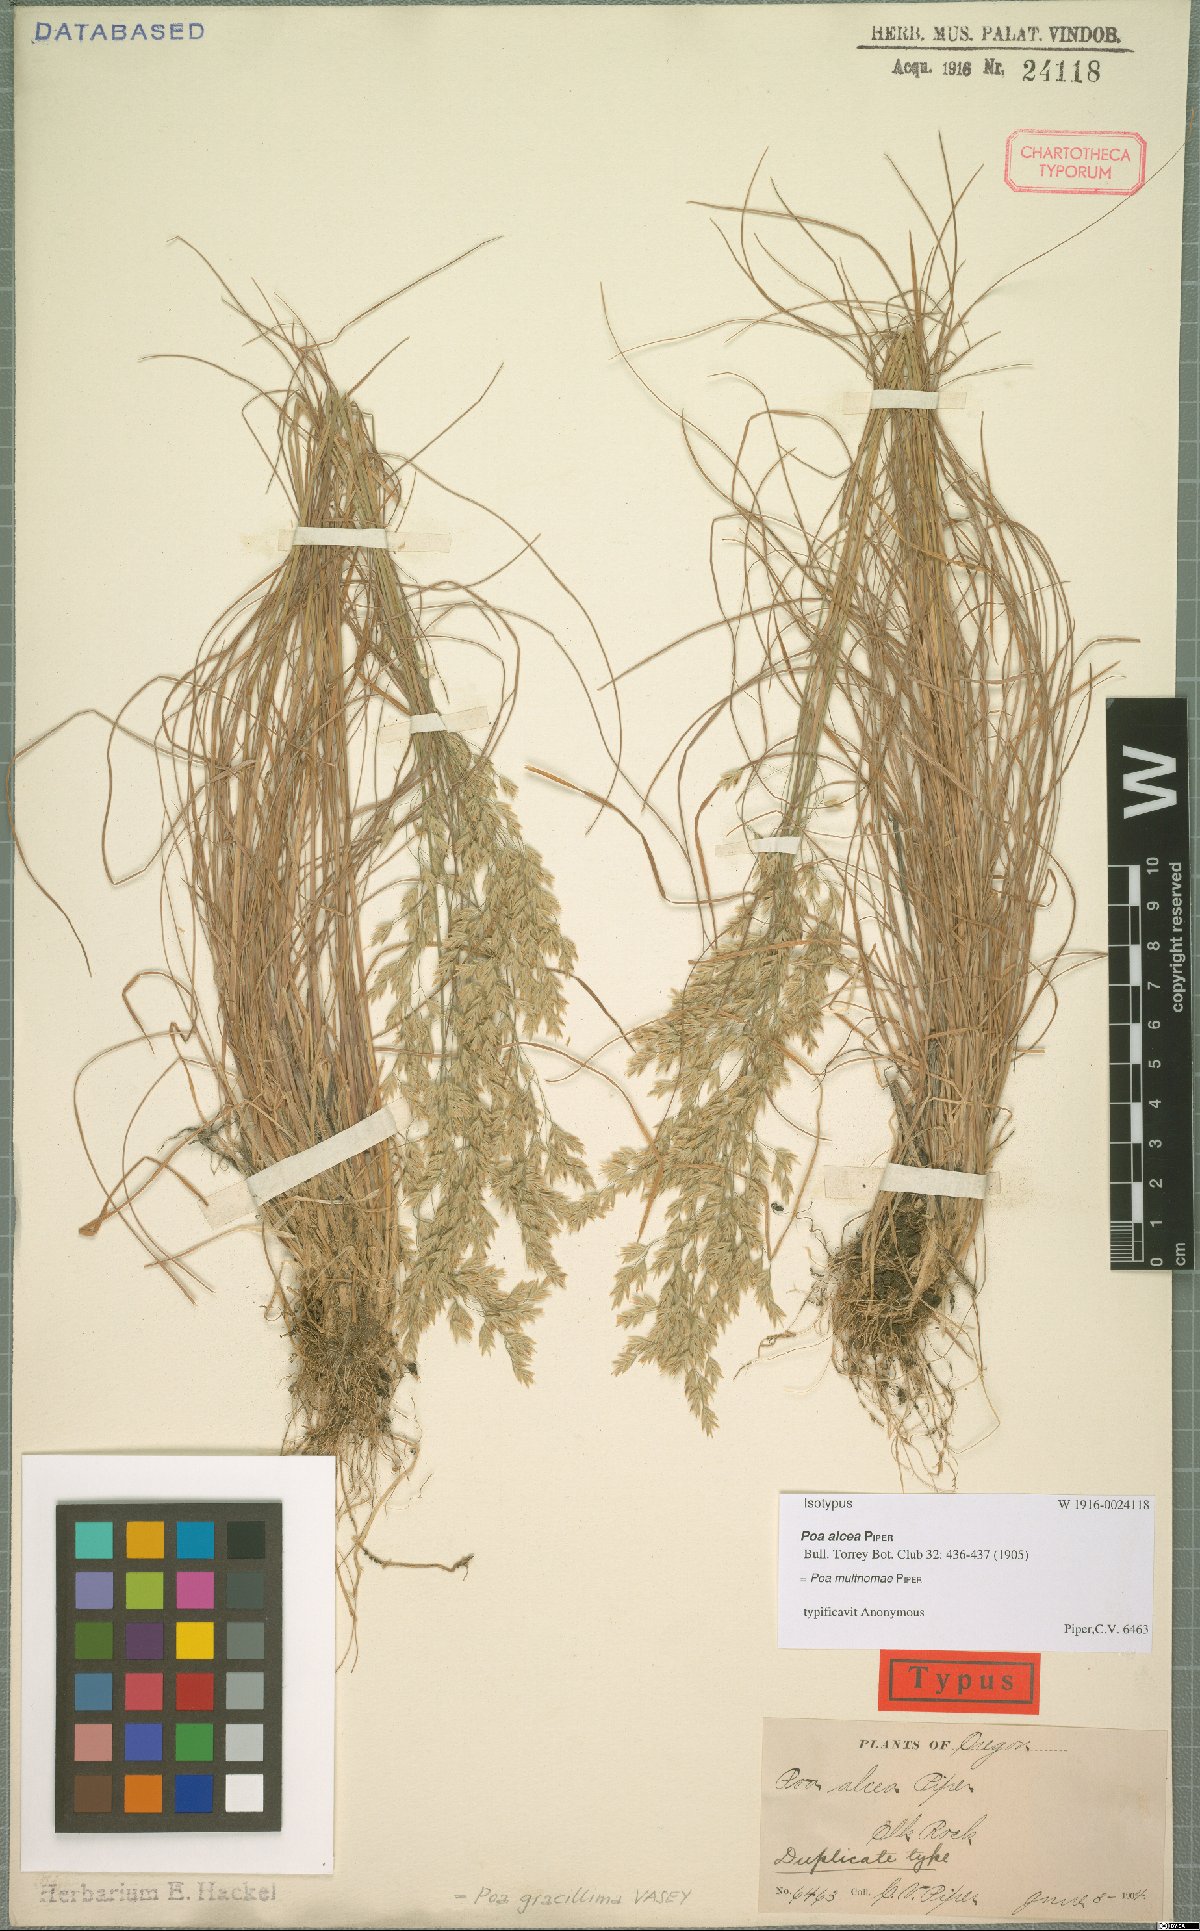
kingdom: Plantae
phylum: Tracheophyta
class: Liliopsida
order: Poales
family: Poaceae
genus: Poa
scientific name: Poa multnomae
